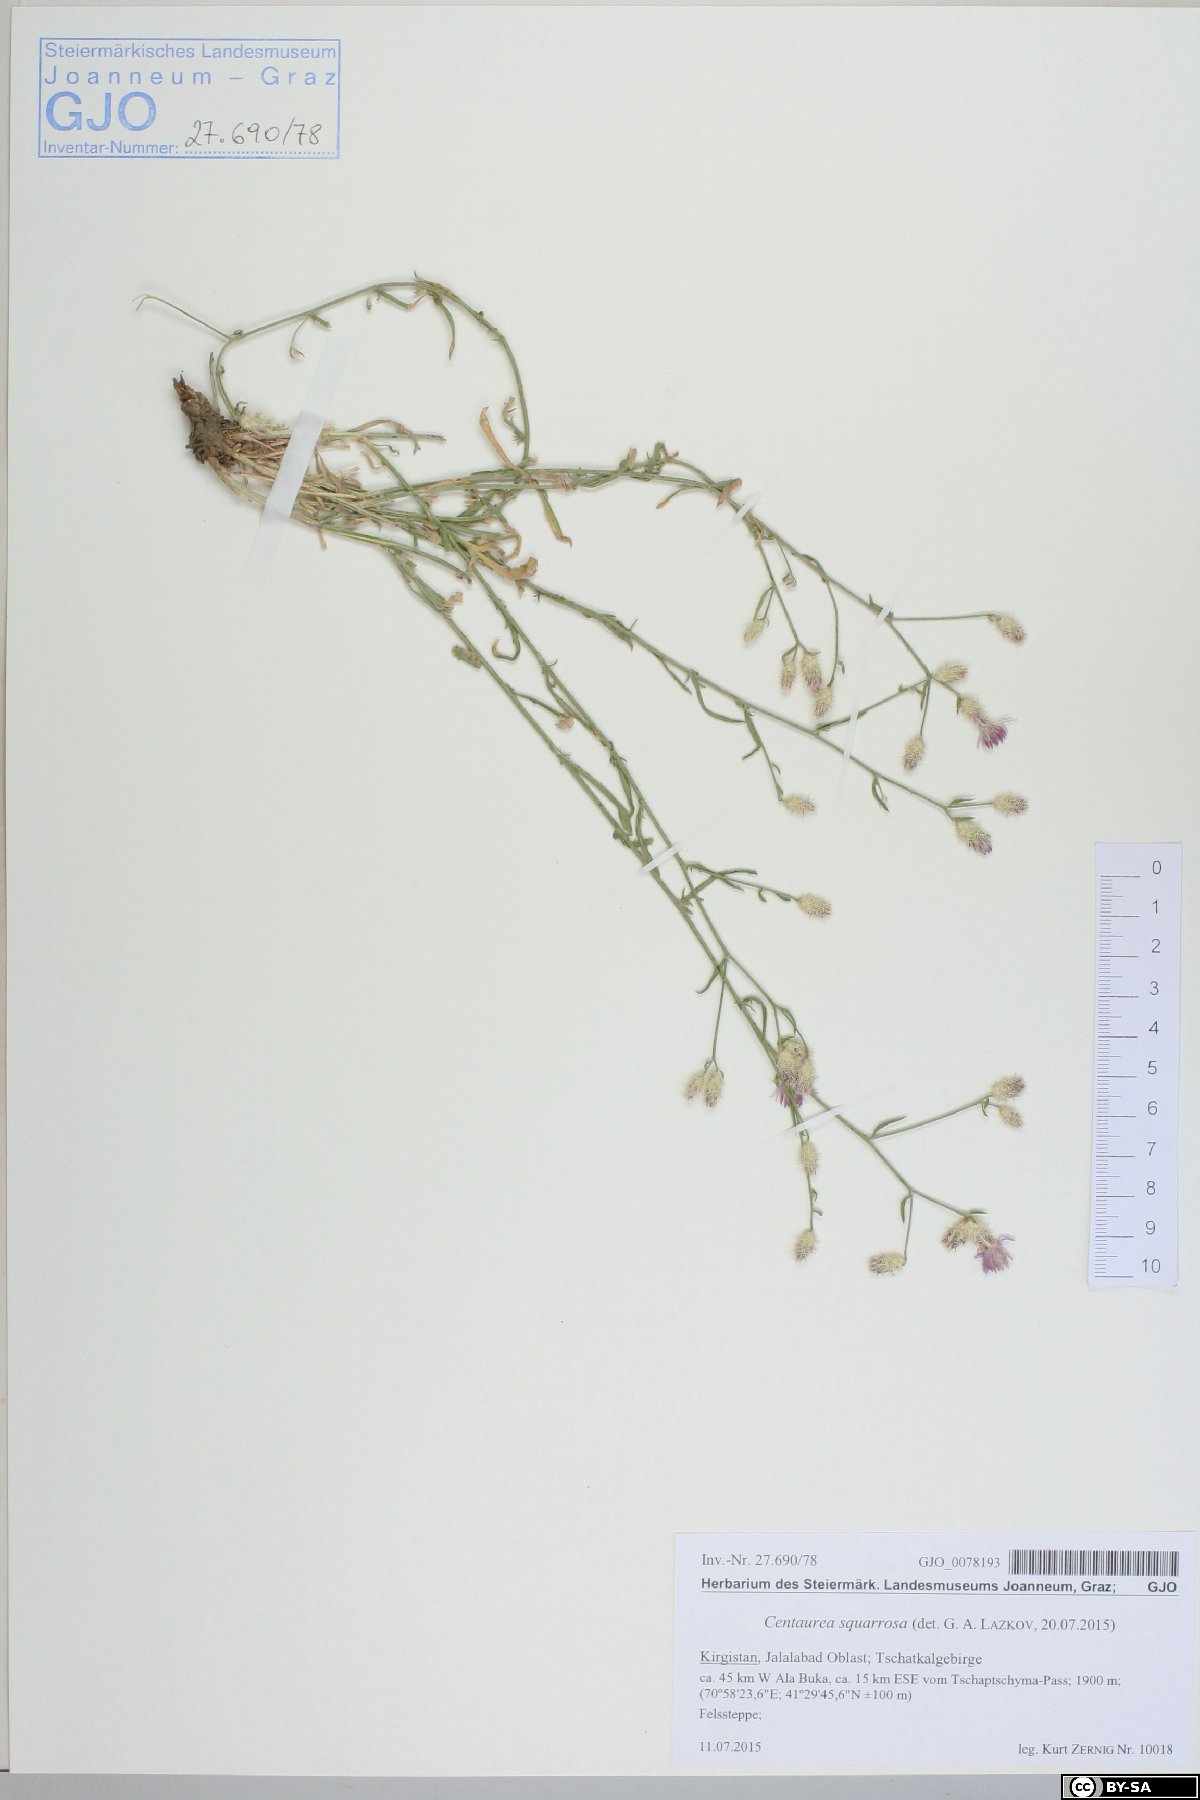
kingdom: Plantae
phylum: Tracheophyta
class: Magnoliopsida
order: Asterales
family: Asteraceae
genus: Centaurea
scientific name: Centaurea virgata
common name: Squarrose knapweed
